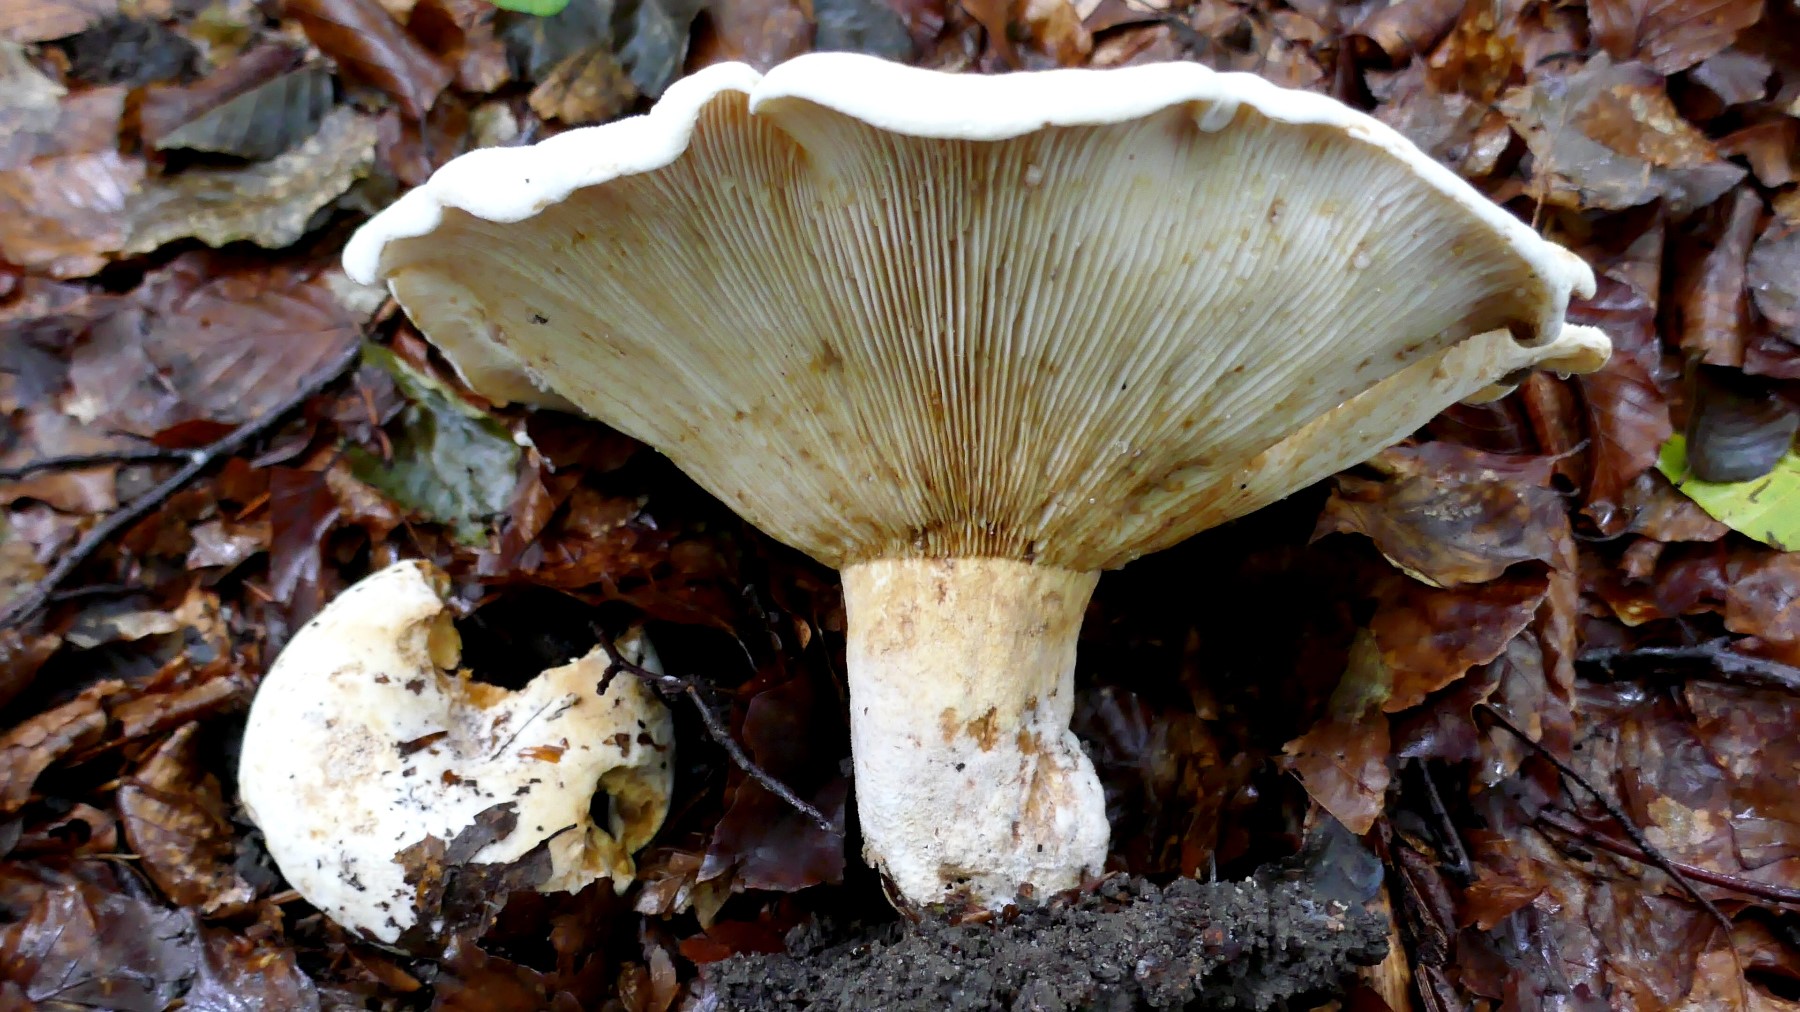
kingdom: Fungi
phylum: Basidiomycota
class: Agaricomycetes
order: Russulales
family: Russulaceae
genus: Lactifluus
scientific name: Lactifluus bertillonii
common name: blødfiltet mælkehat
